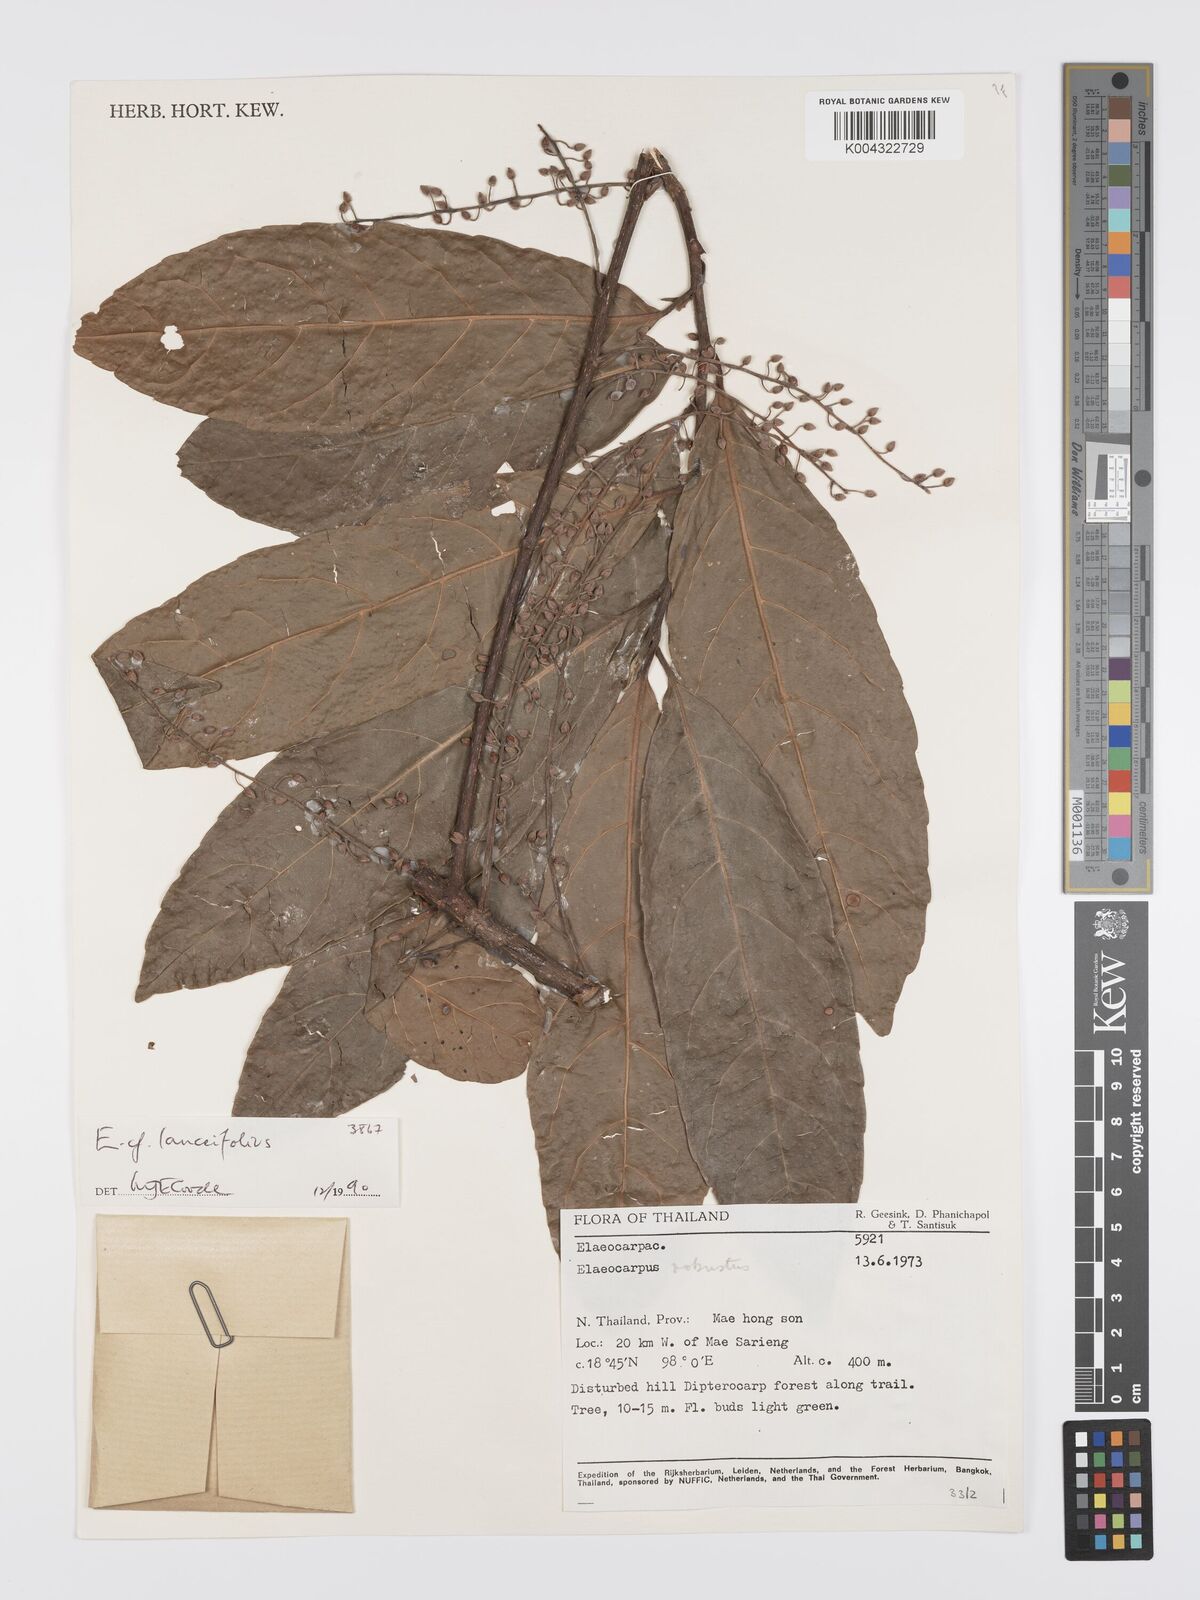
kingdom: Plantae
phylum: Tracheophyta
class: Magnoliopsida
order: Oxalidales
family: Elaeocarpaceae
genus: Elaeocarpus
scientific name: Elaeocarpus lanceifolius
